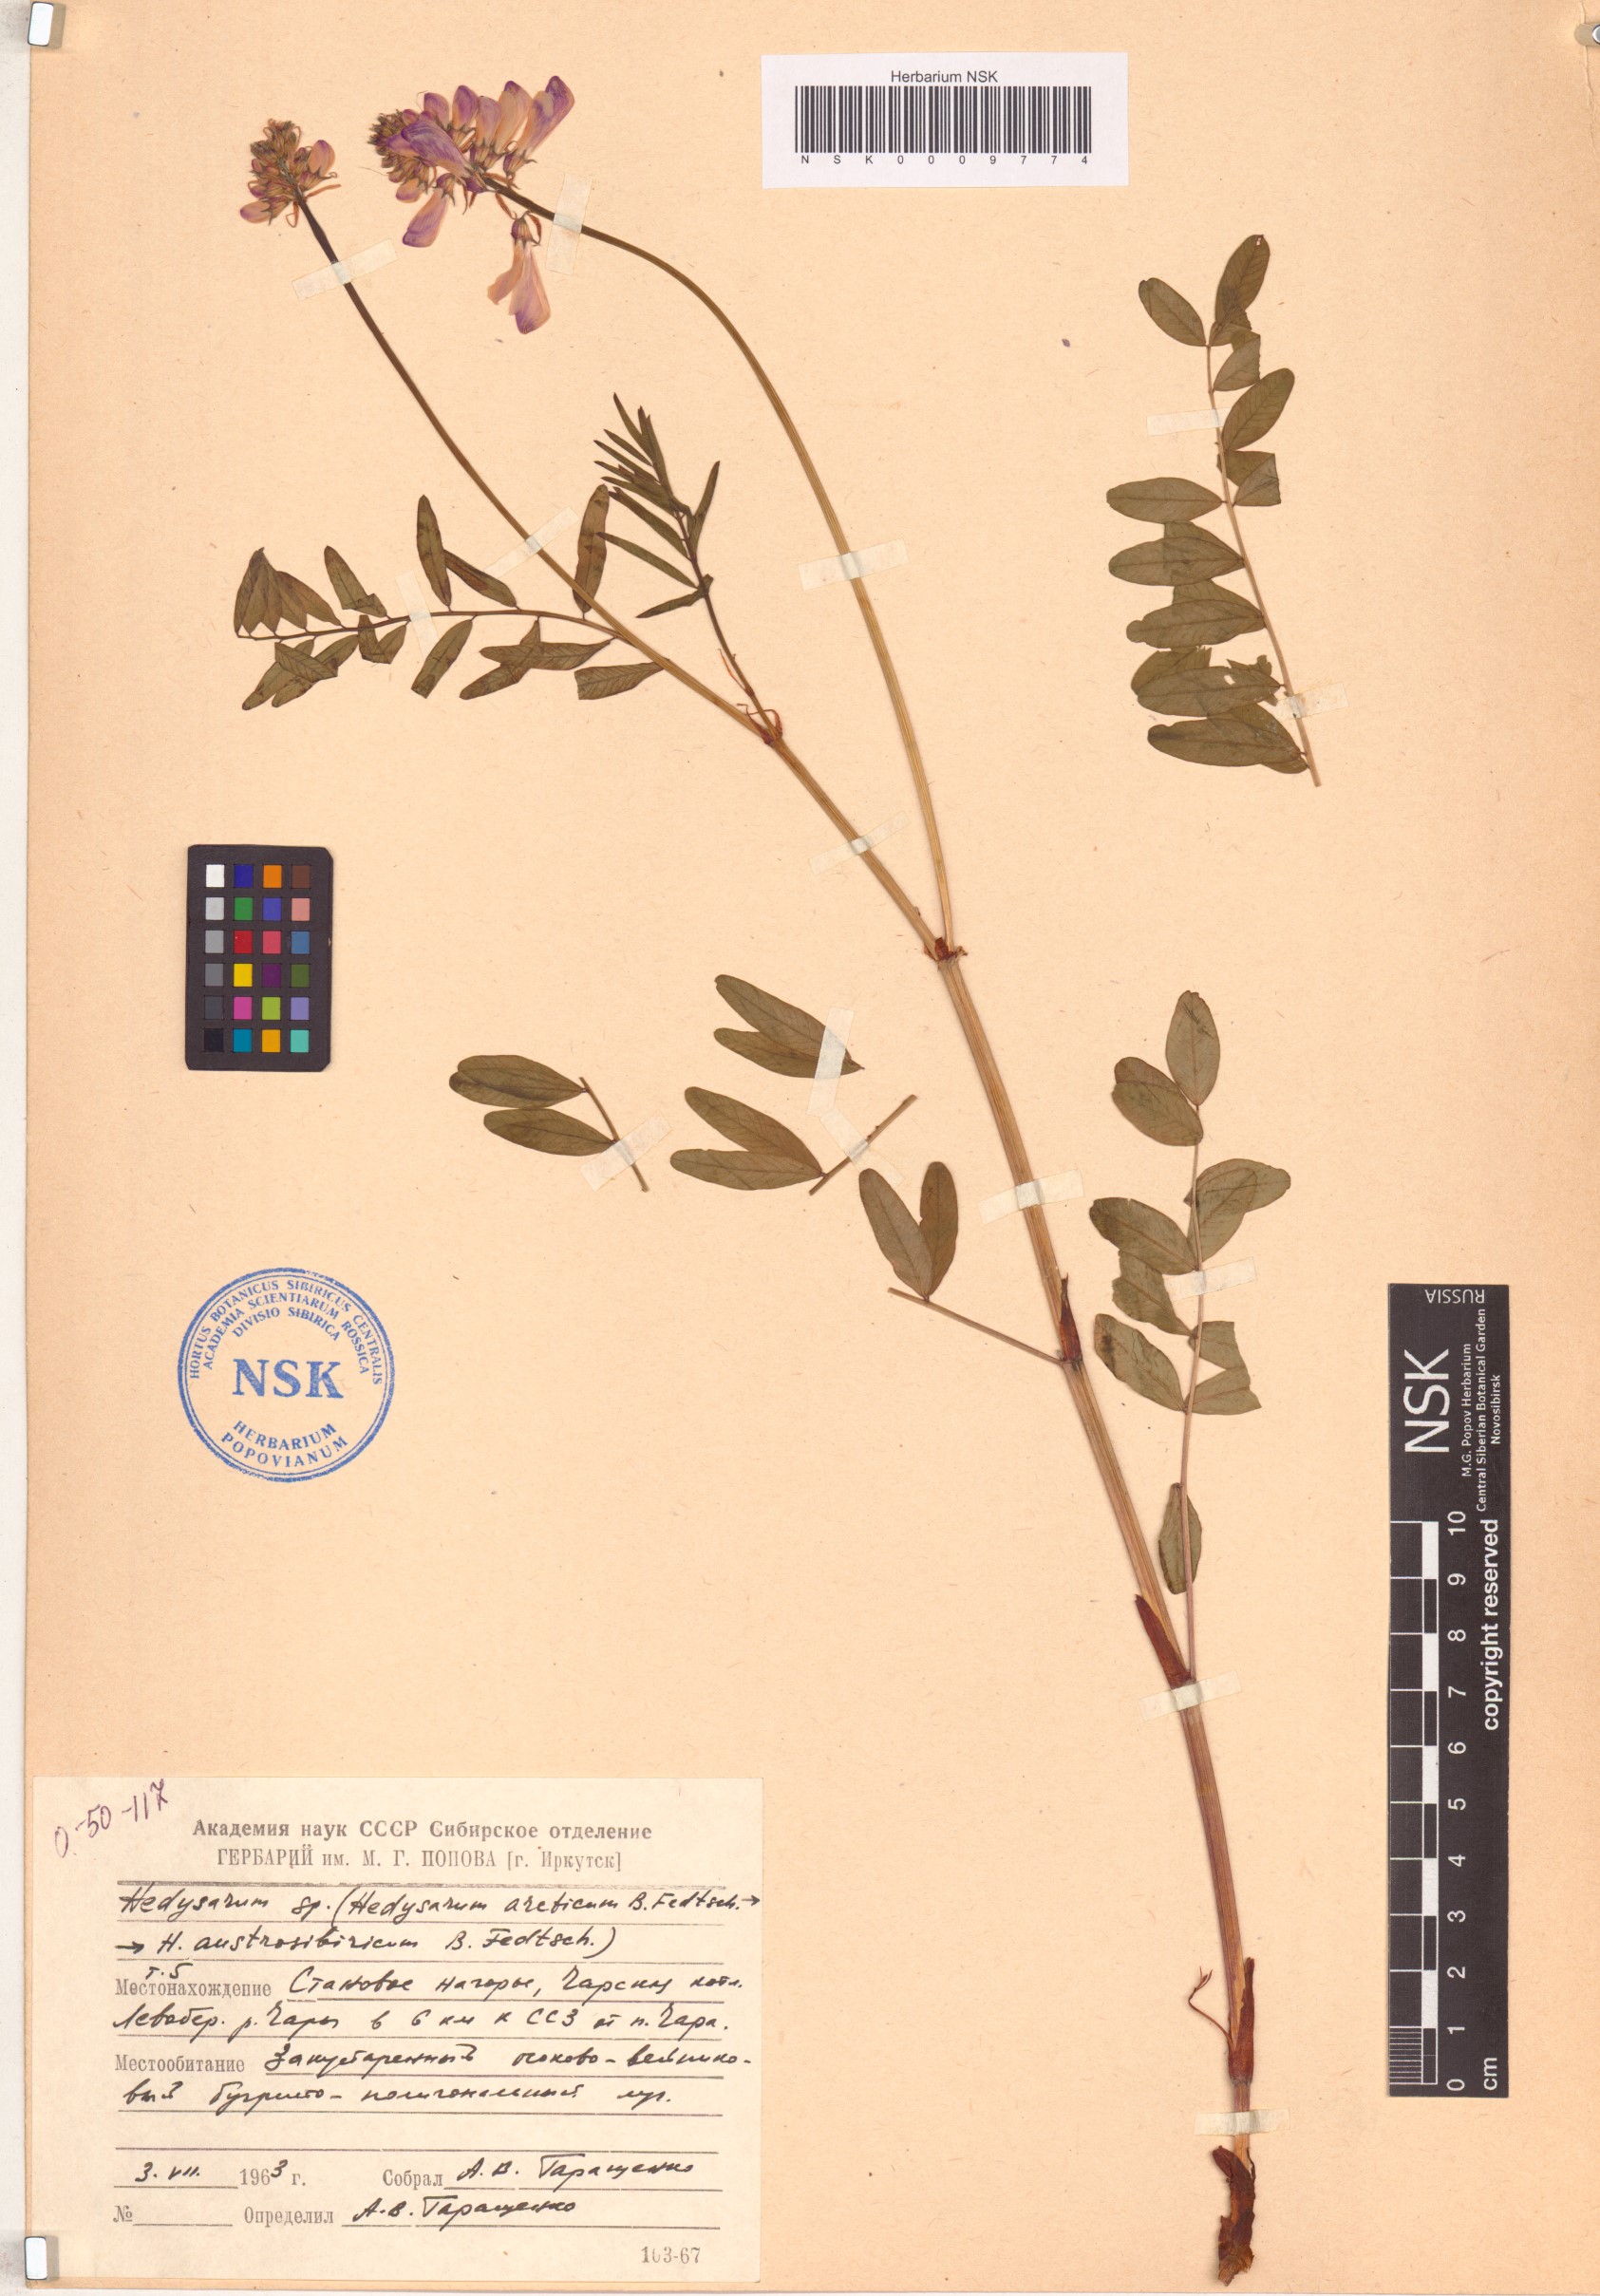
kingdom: Plantae
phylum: Tracheophyta
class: Magnoliopsida
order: Fabales
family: Fabaceae
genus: Hedysarum
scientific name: Hedysarum hedysaroides
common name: Alpine french-honeysuckle
